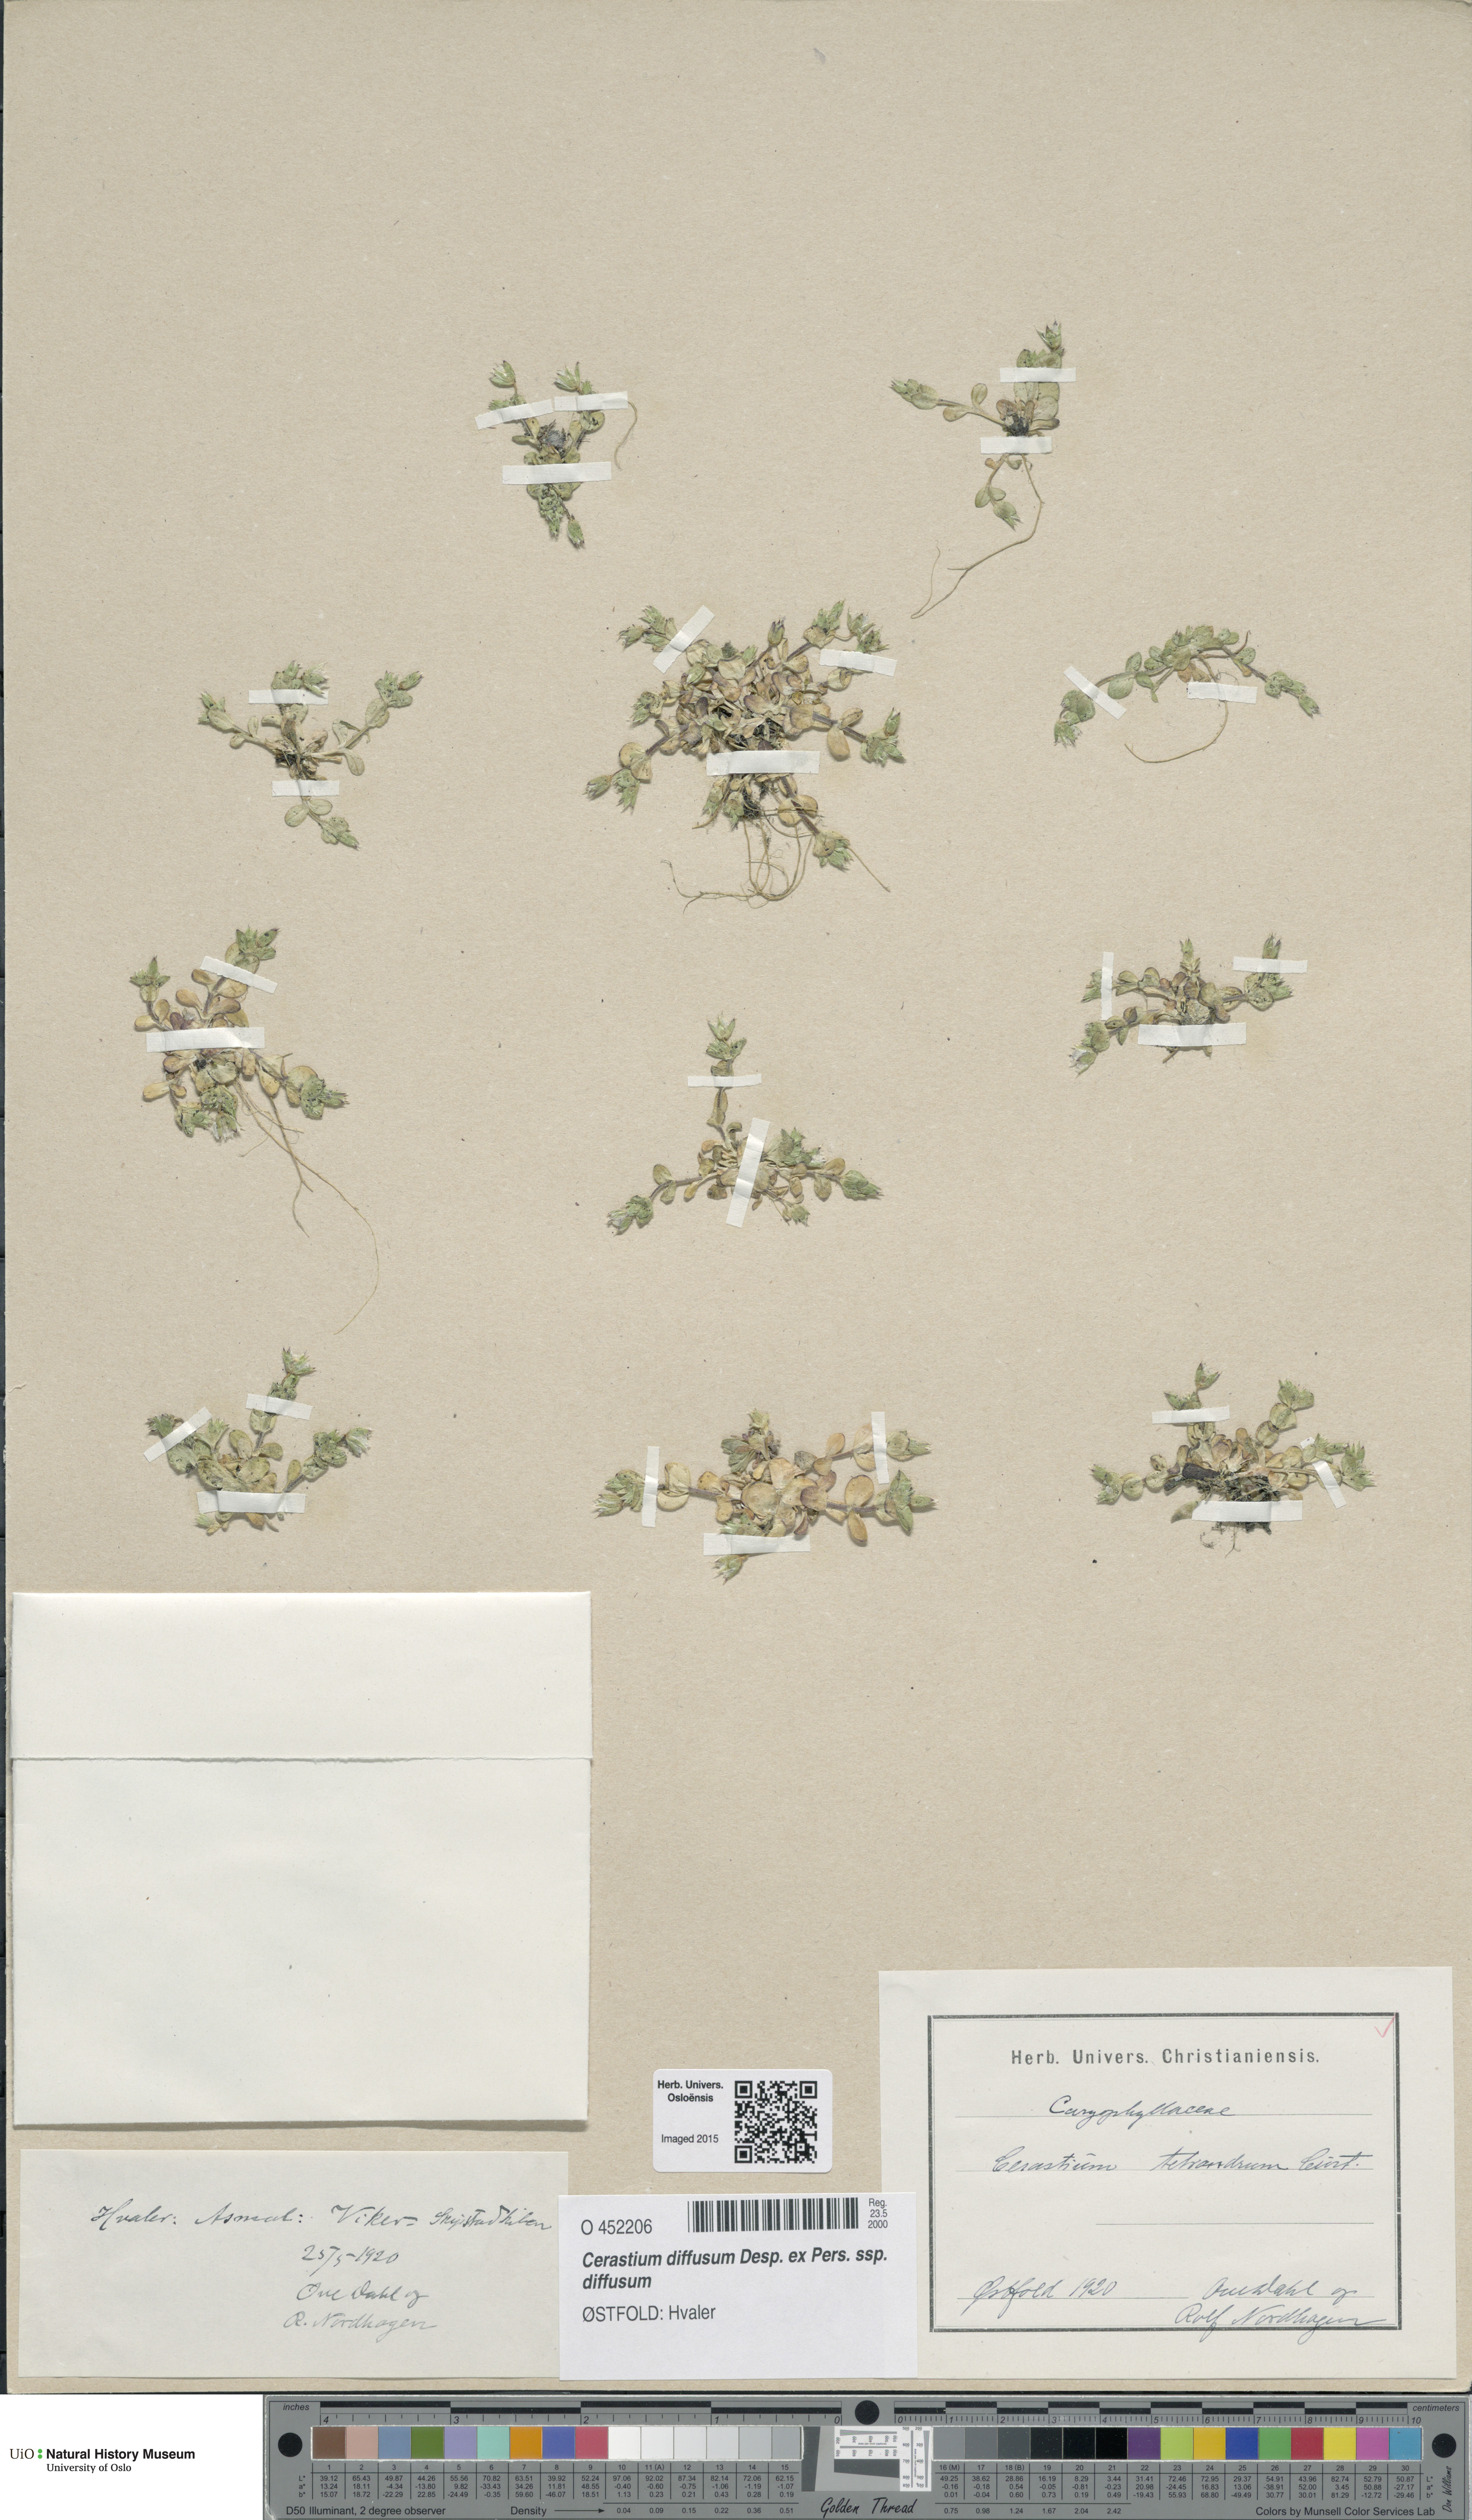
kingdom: Plantae
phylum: Tracheophyta
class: Magnoliopsida
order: Caryophyllales
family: Caryophyllaceae
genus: Cerastium
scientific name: Cerastium diffusum
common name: Fourstamen chickweed
